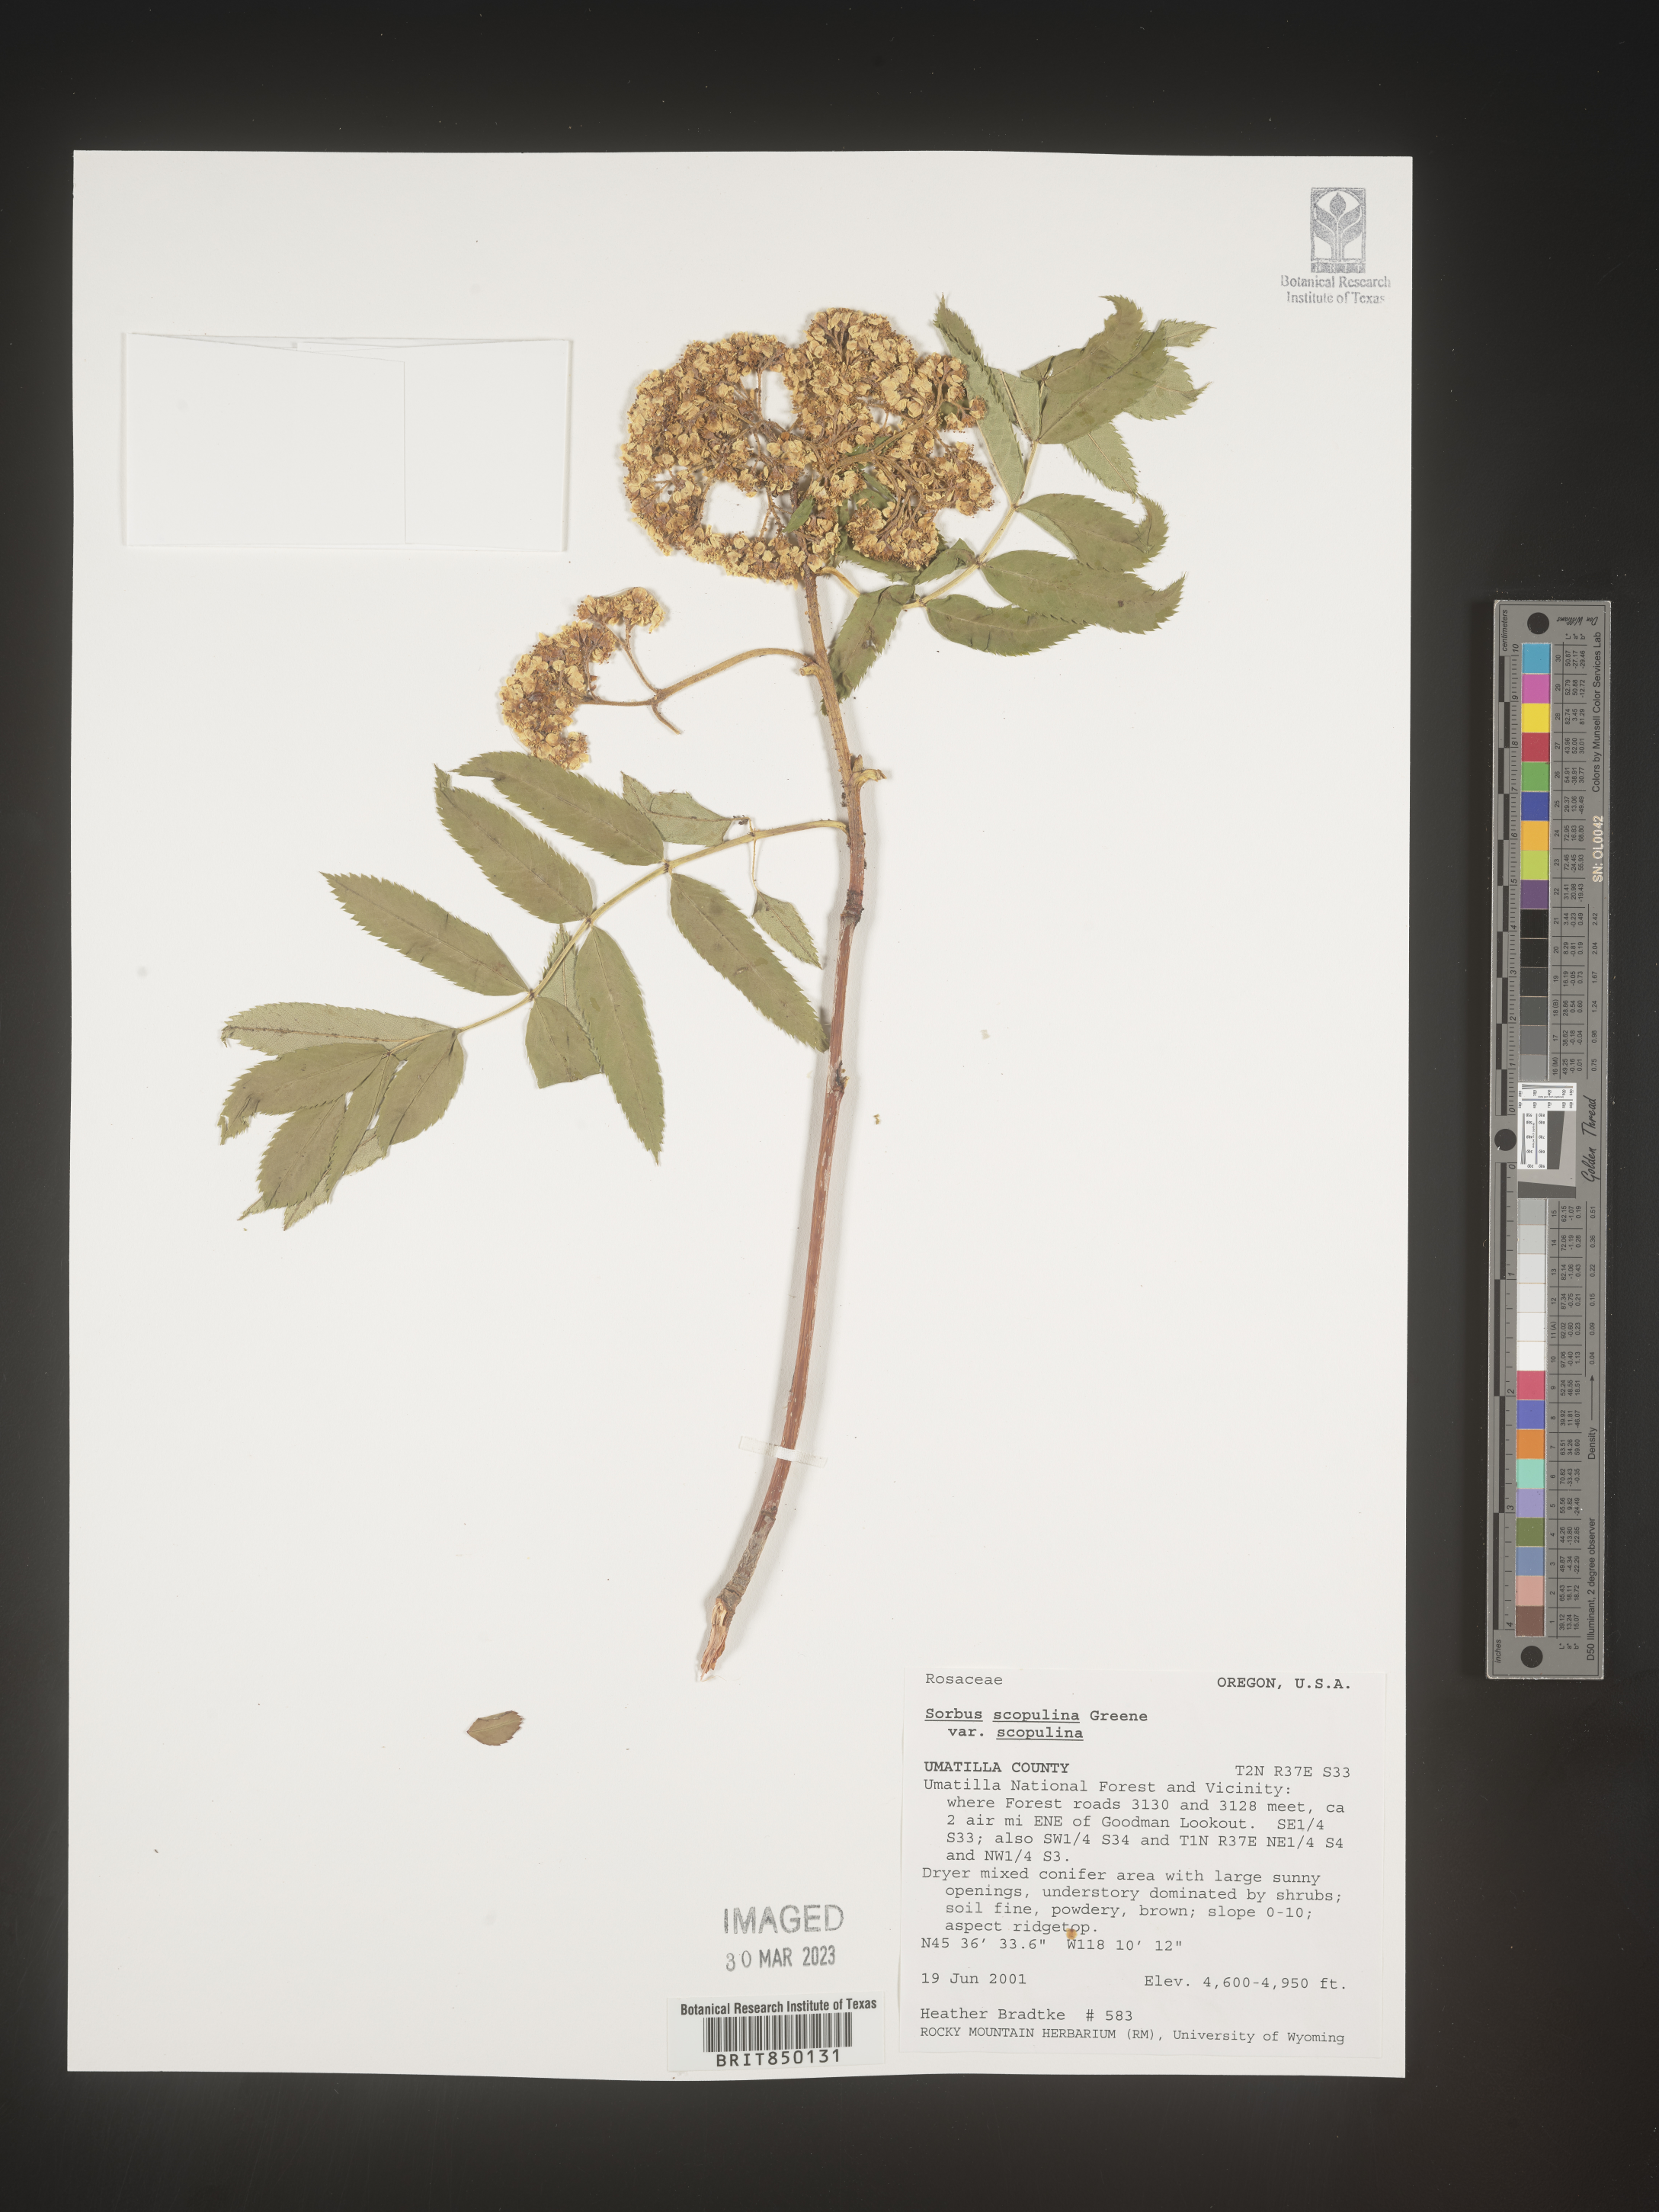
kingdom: Plantae
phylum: Tracheophyta
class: Magnoliopsida
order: Rosales
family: Rosaceae
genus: Sorbus
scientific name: Sorbus scopulina
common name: Greene's mountain-ash
